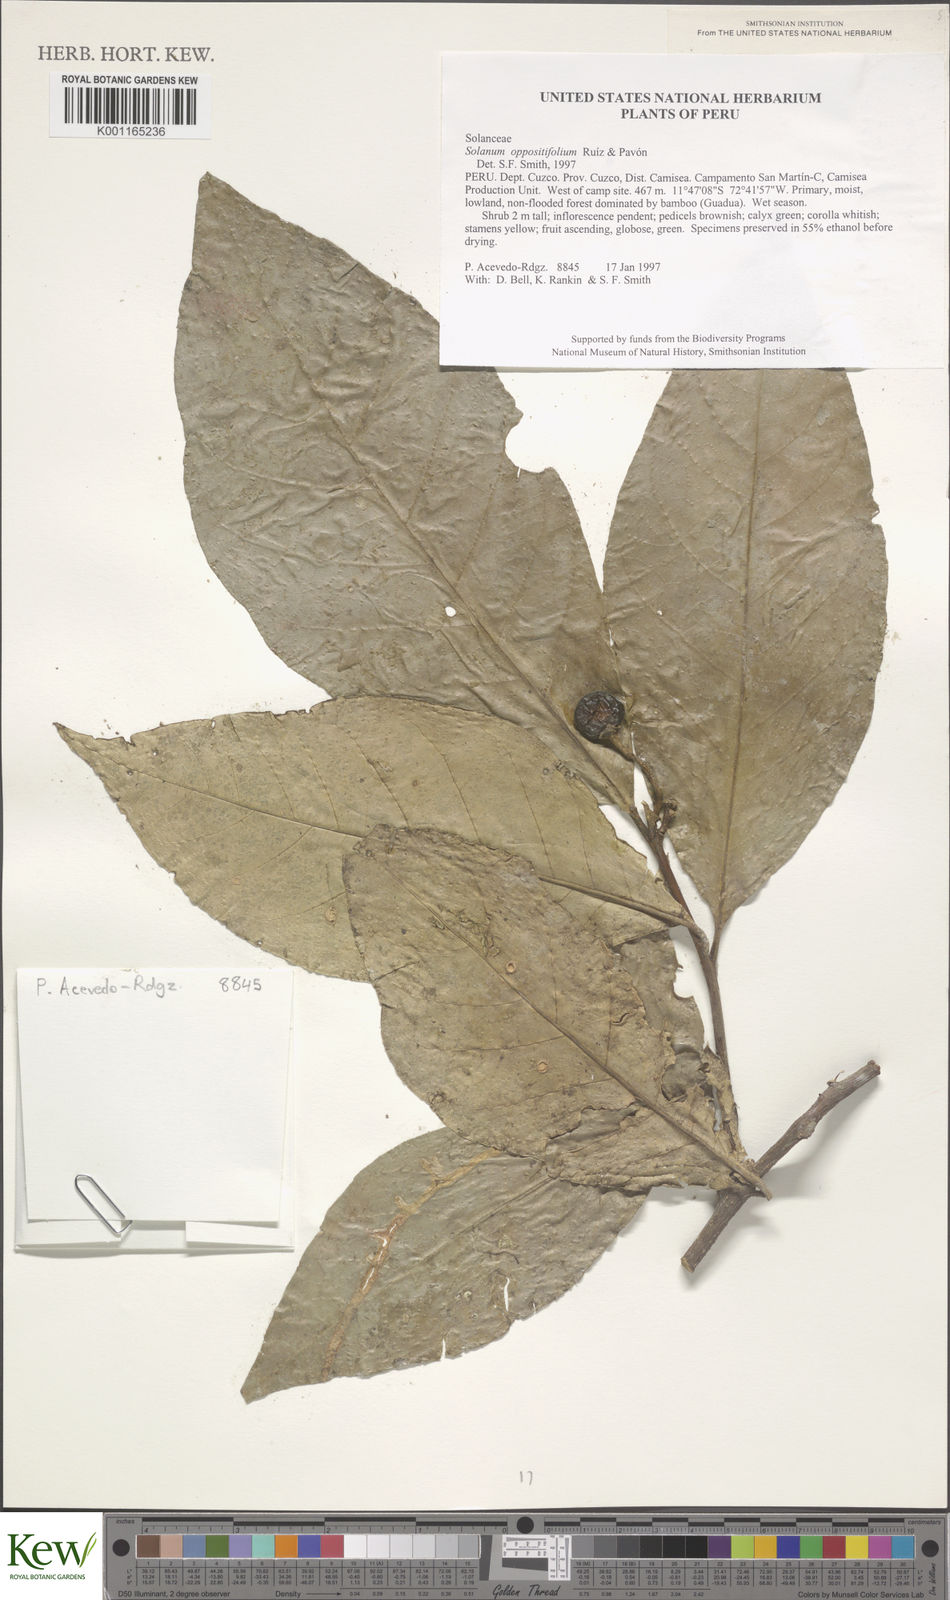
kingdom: Plantae
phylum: Tracheophyta
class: Magnoliopsida
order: Solanales
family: Solanaceae
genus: Solanum
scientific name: Solanum oppositifolium
